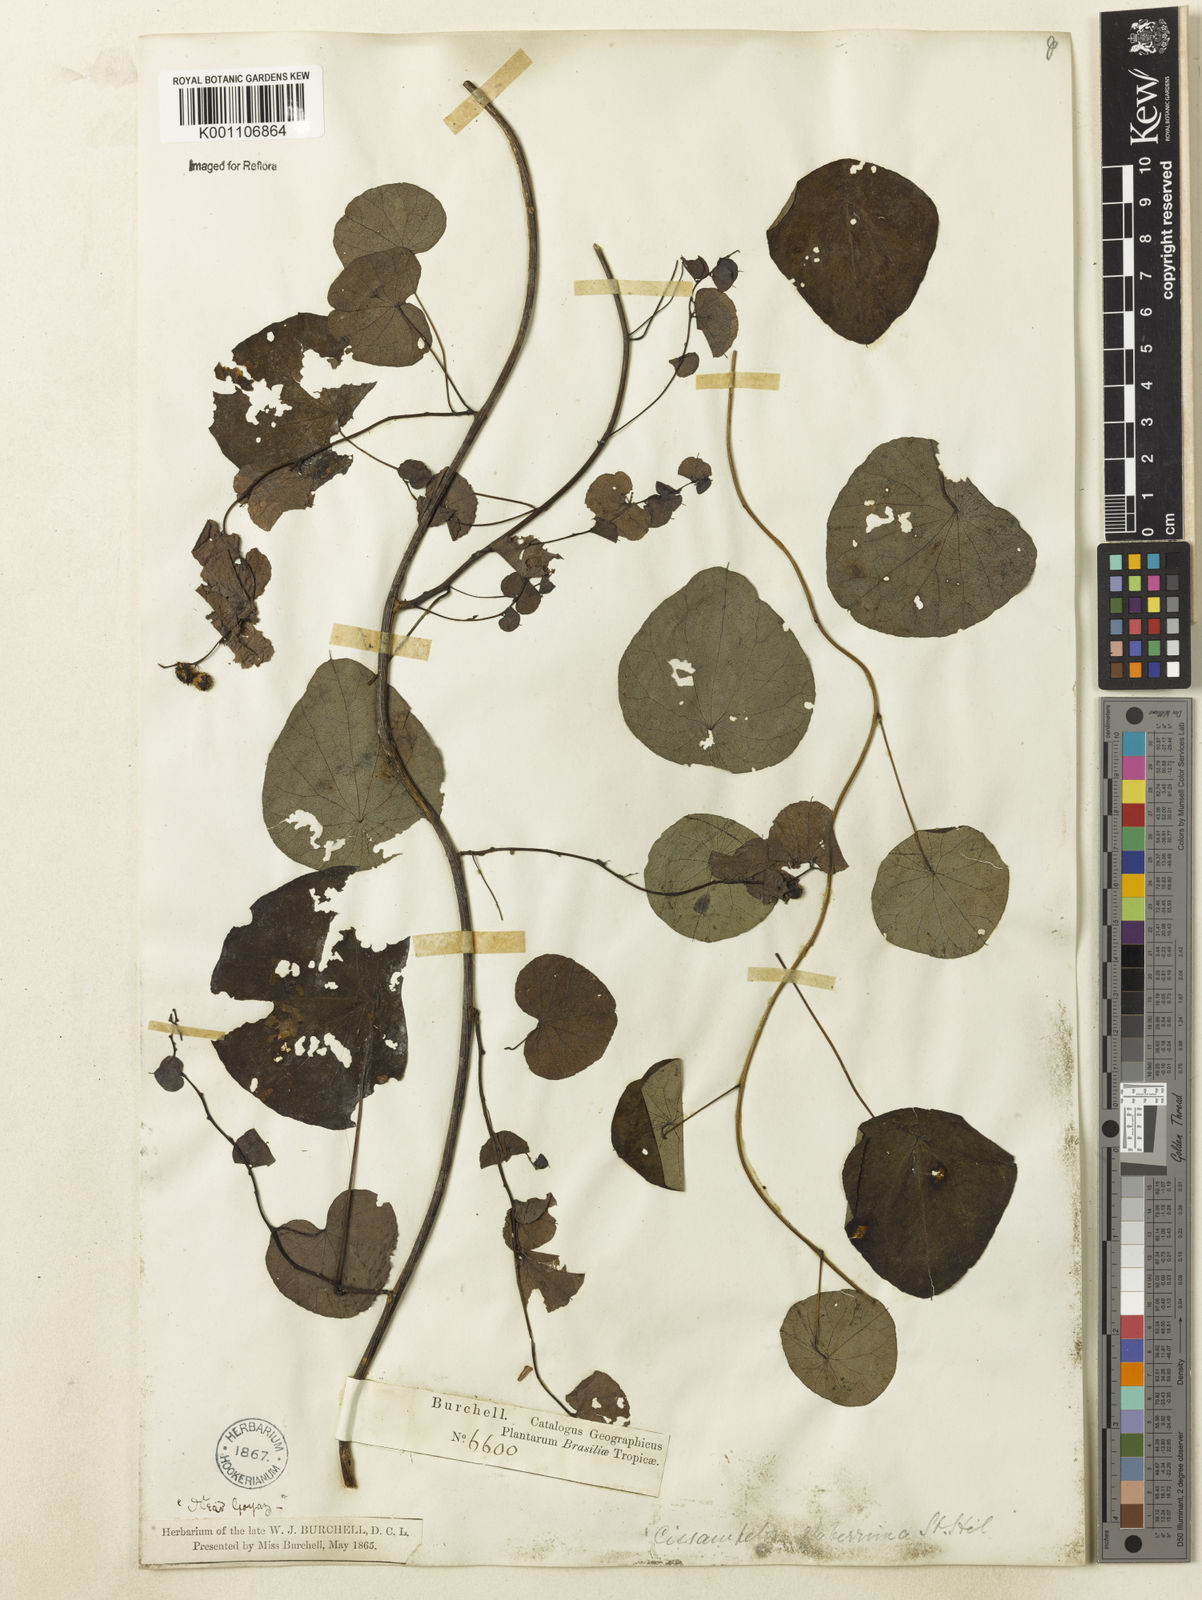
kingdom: Plantae
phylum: Tracheophyta
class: Magnoliopsida
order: Ranunculales
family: Menispermaceae
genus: Cissampelos
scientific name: Cissampelos glaberrima
